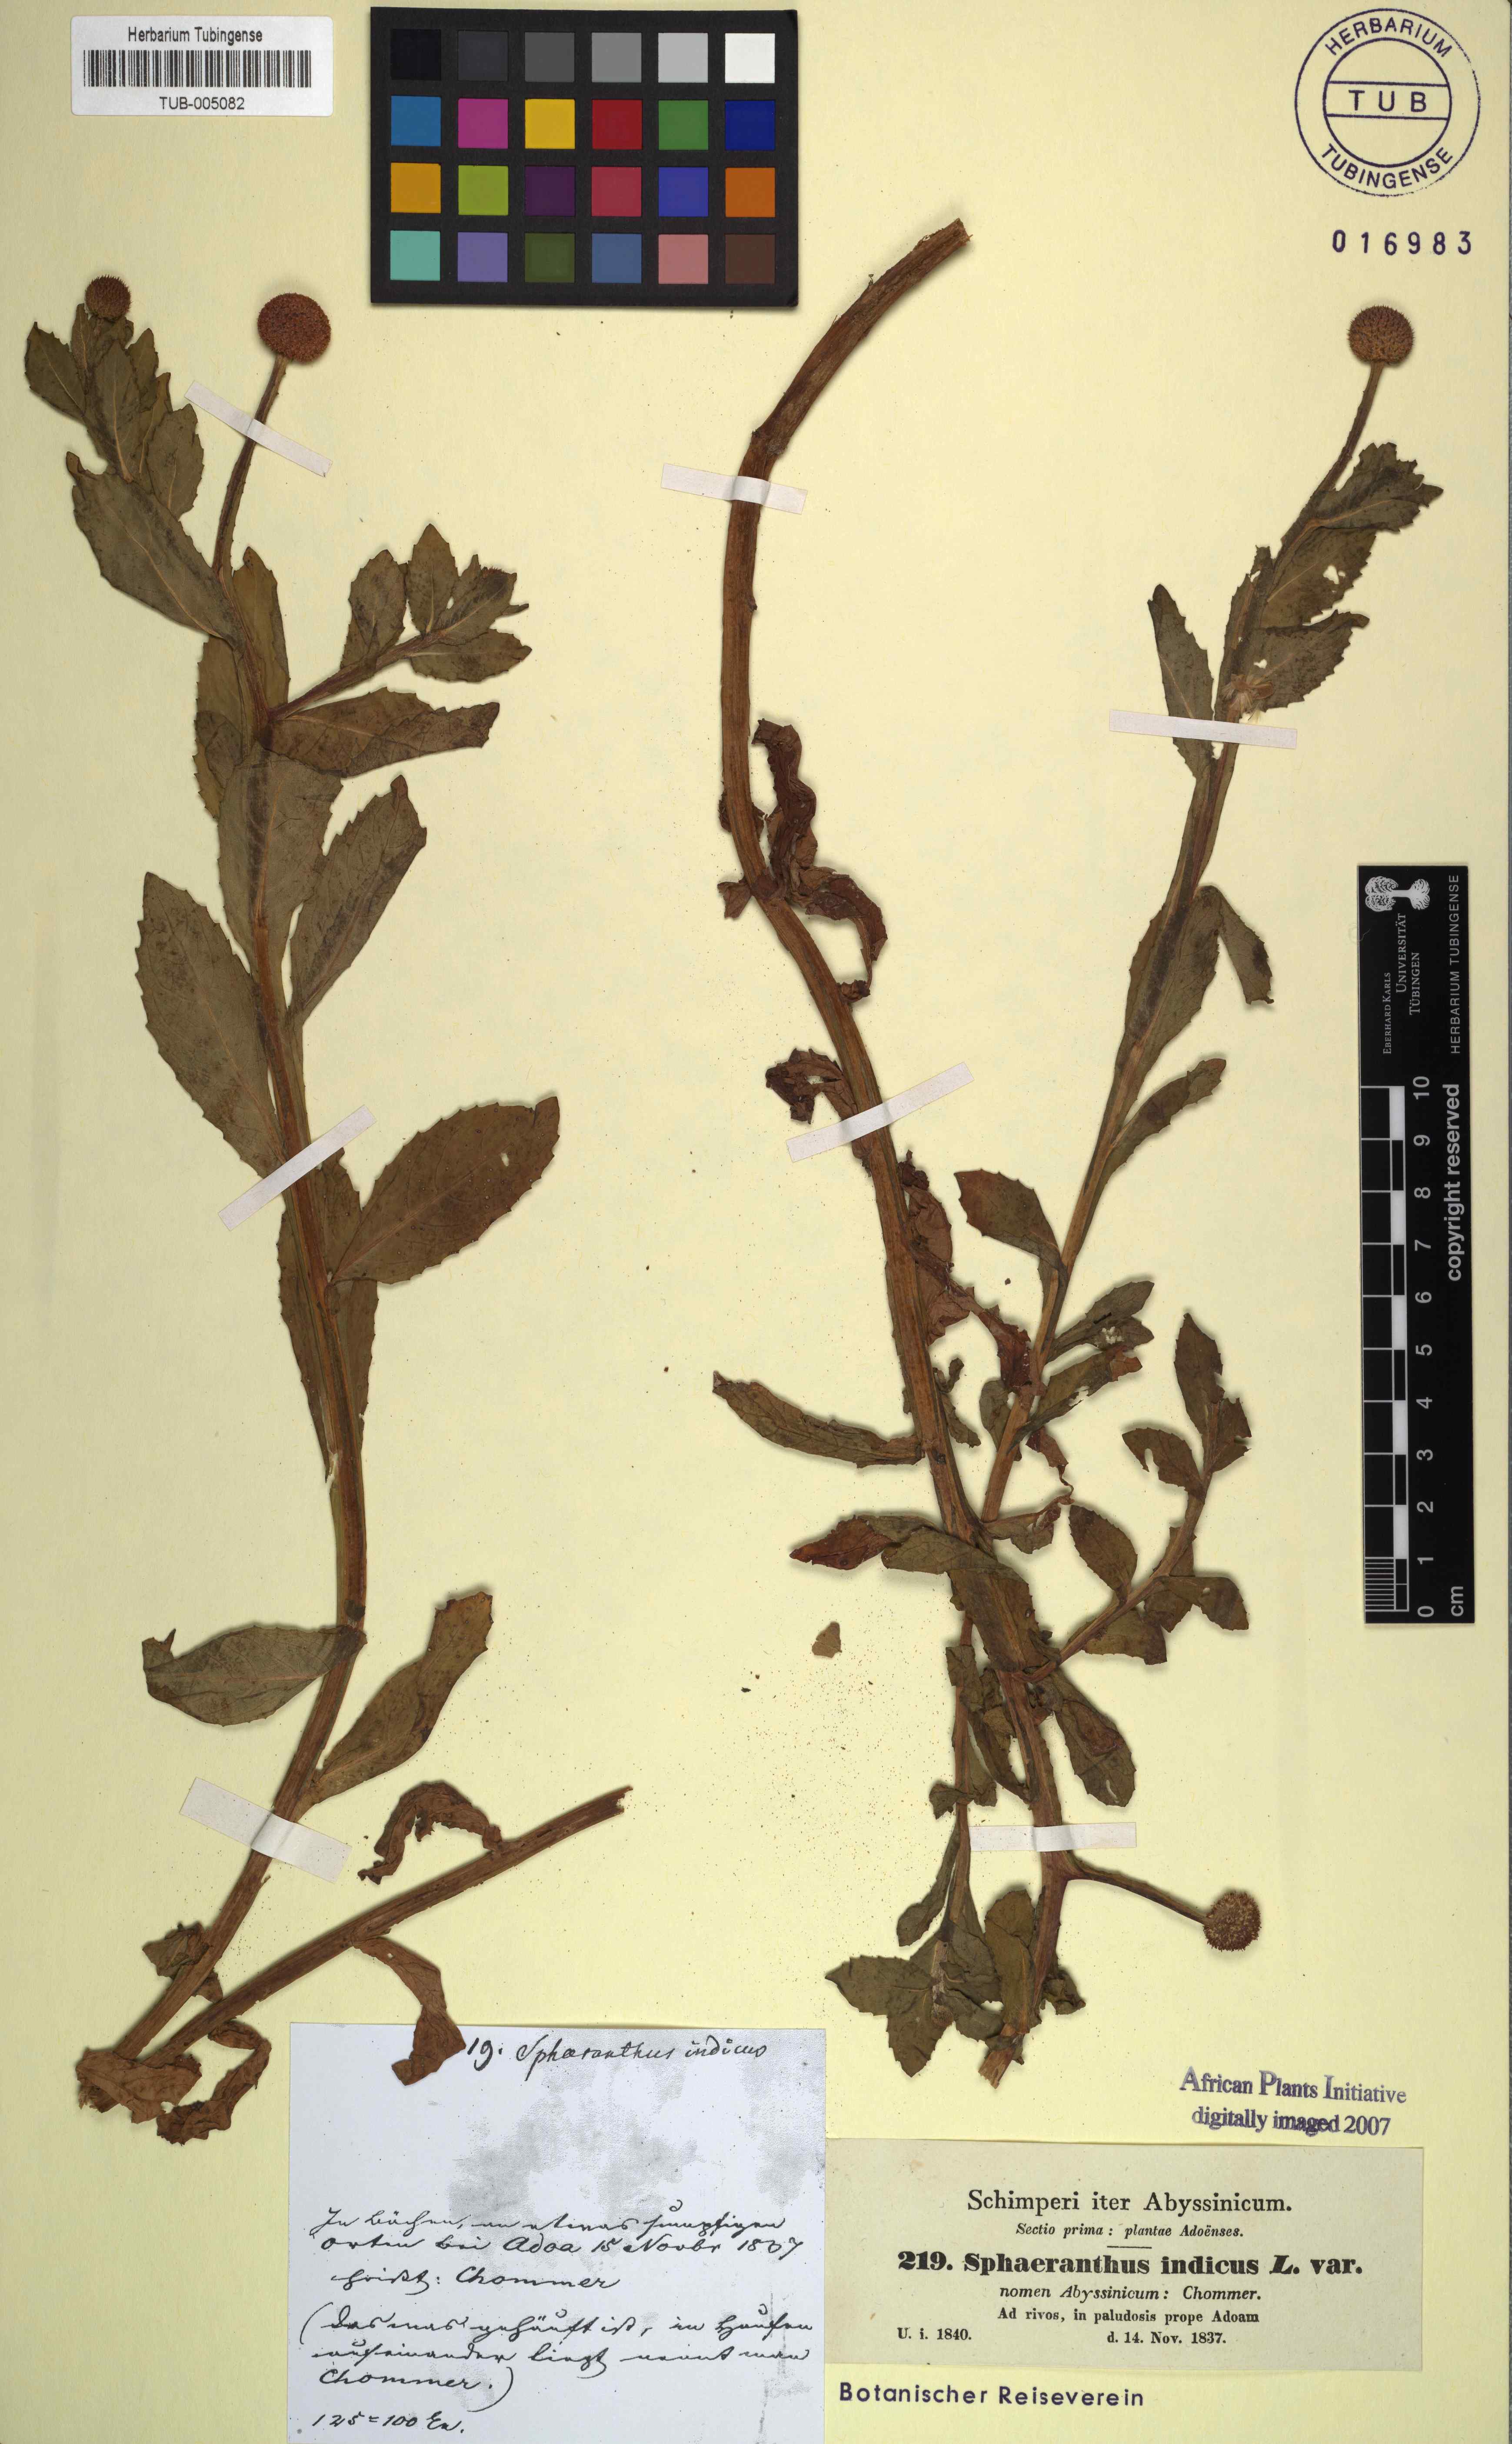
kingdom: Plantae
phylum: Tracheophyta
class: Magnoliopsida
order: Asterales
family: Asteraceae
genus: Sphaeranthus
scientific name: Sphaeranthus indicus
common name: East indian globe thistle
